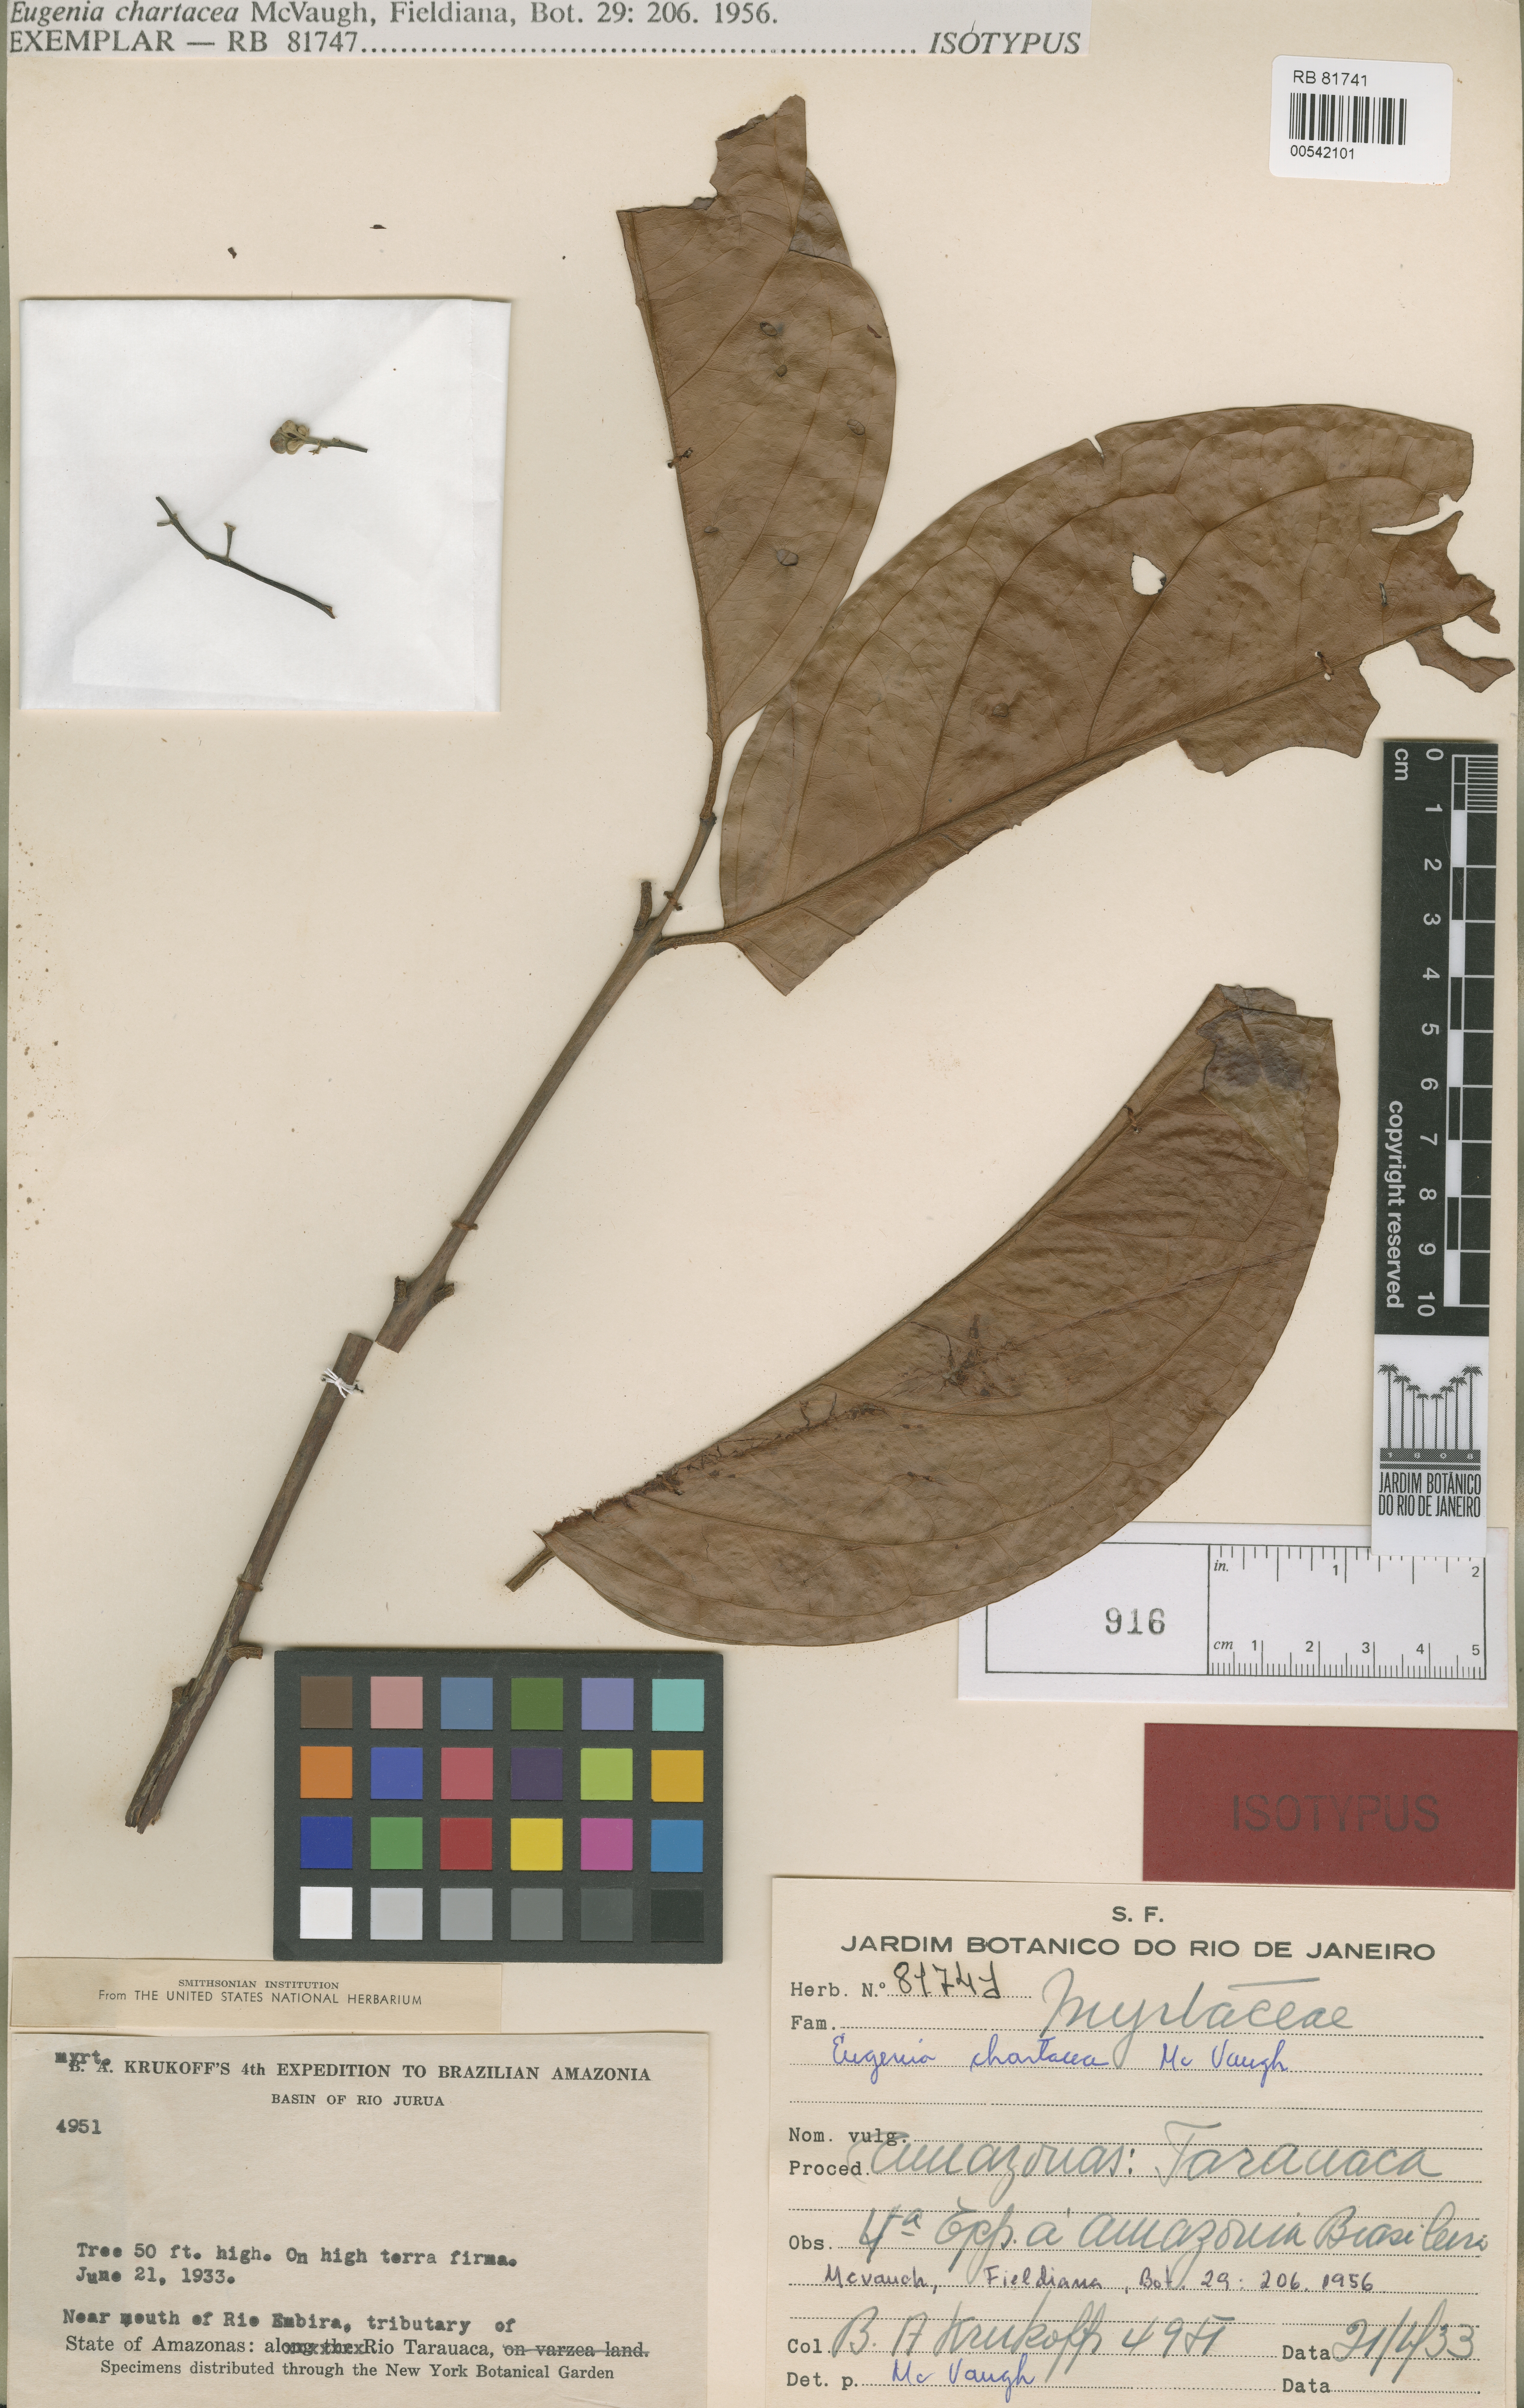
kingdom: Plantae
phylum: Tracheophyta
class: Magnoliopsida
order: Myrtales
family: Myrtaceae
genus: Eugenia
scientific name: Eugenia chartacea
